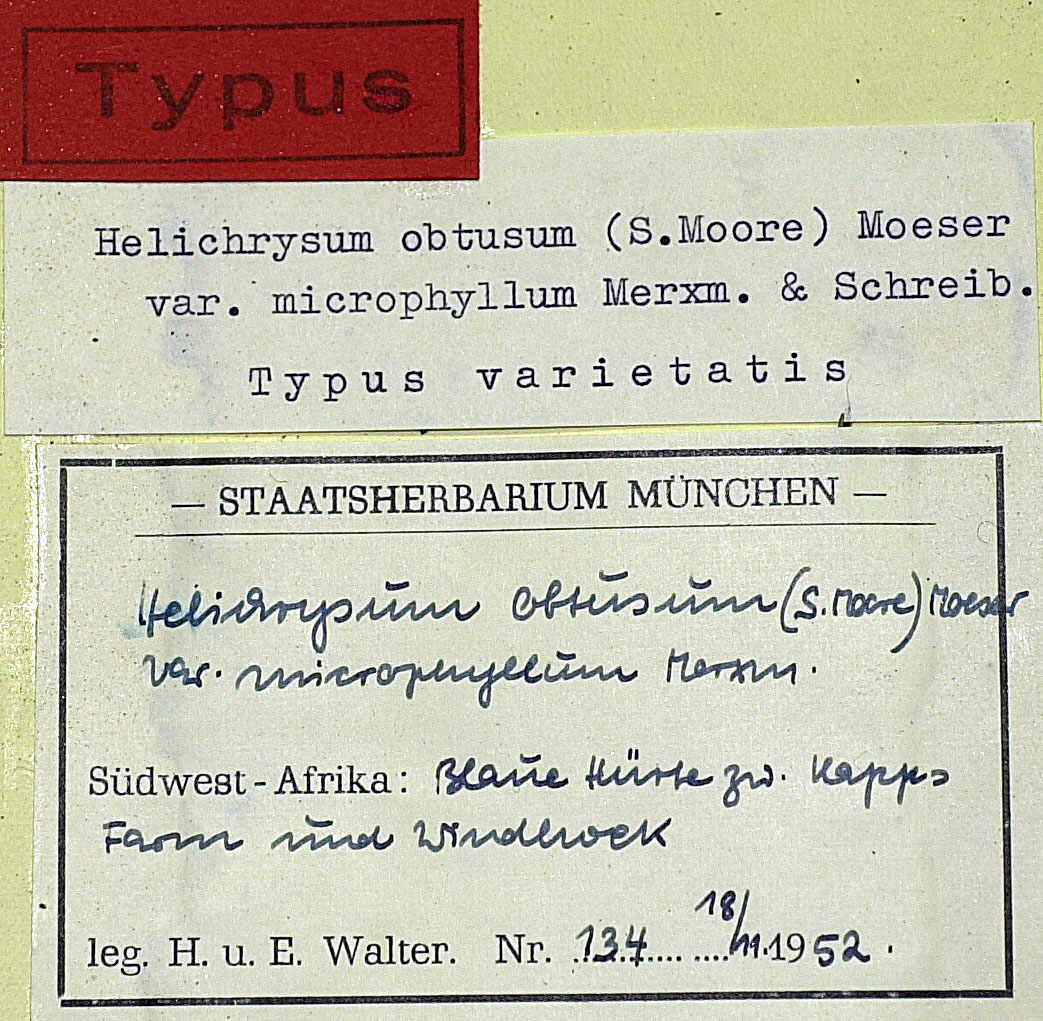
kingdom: Plantae
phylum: Tracheophyta
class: Magnoliopsida
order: Asterales
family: Asteraceae
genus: Helichrysum
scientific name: Helichrysum obtusum
